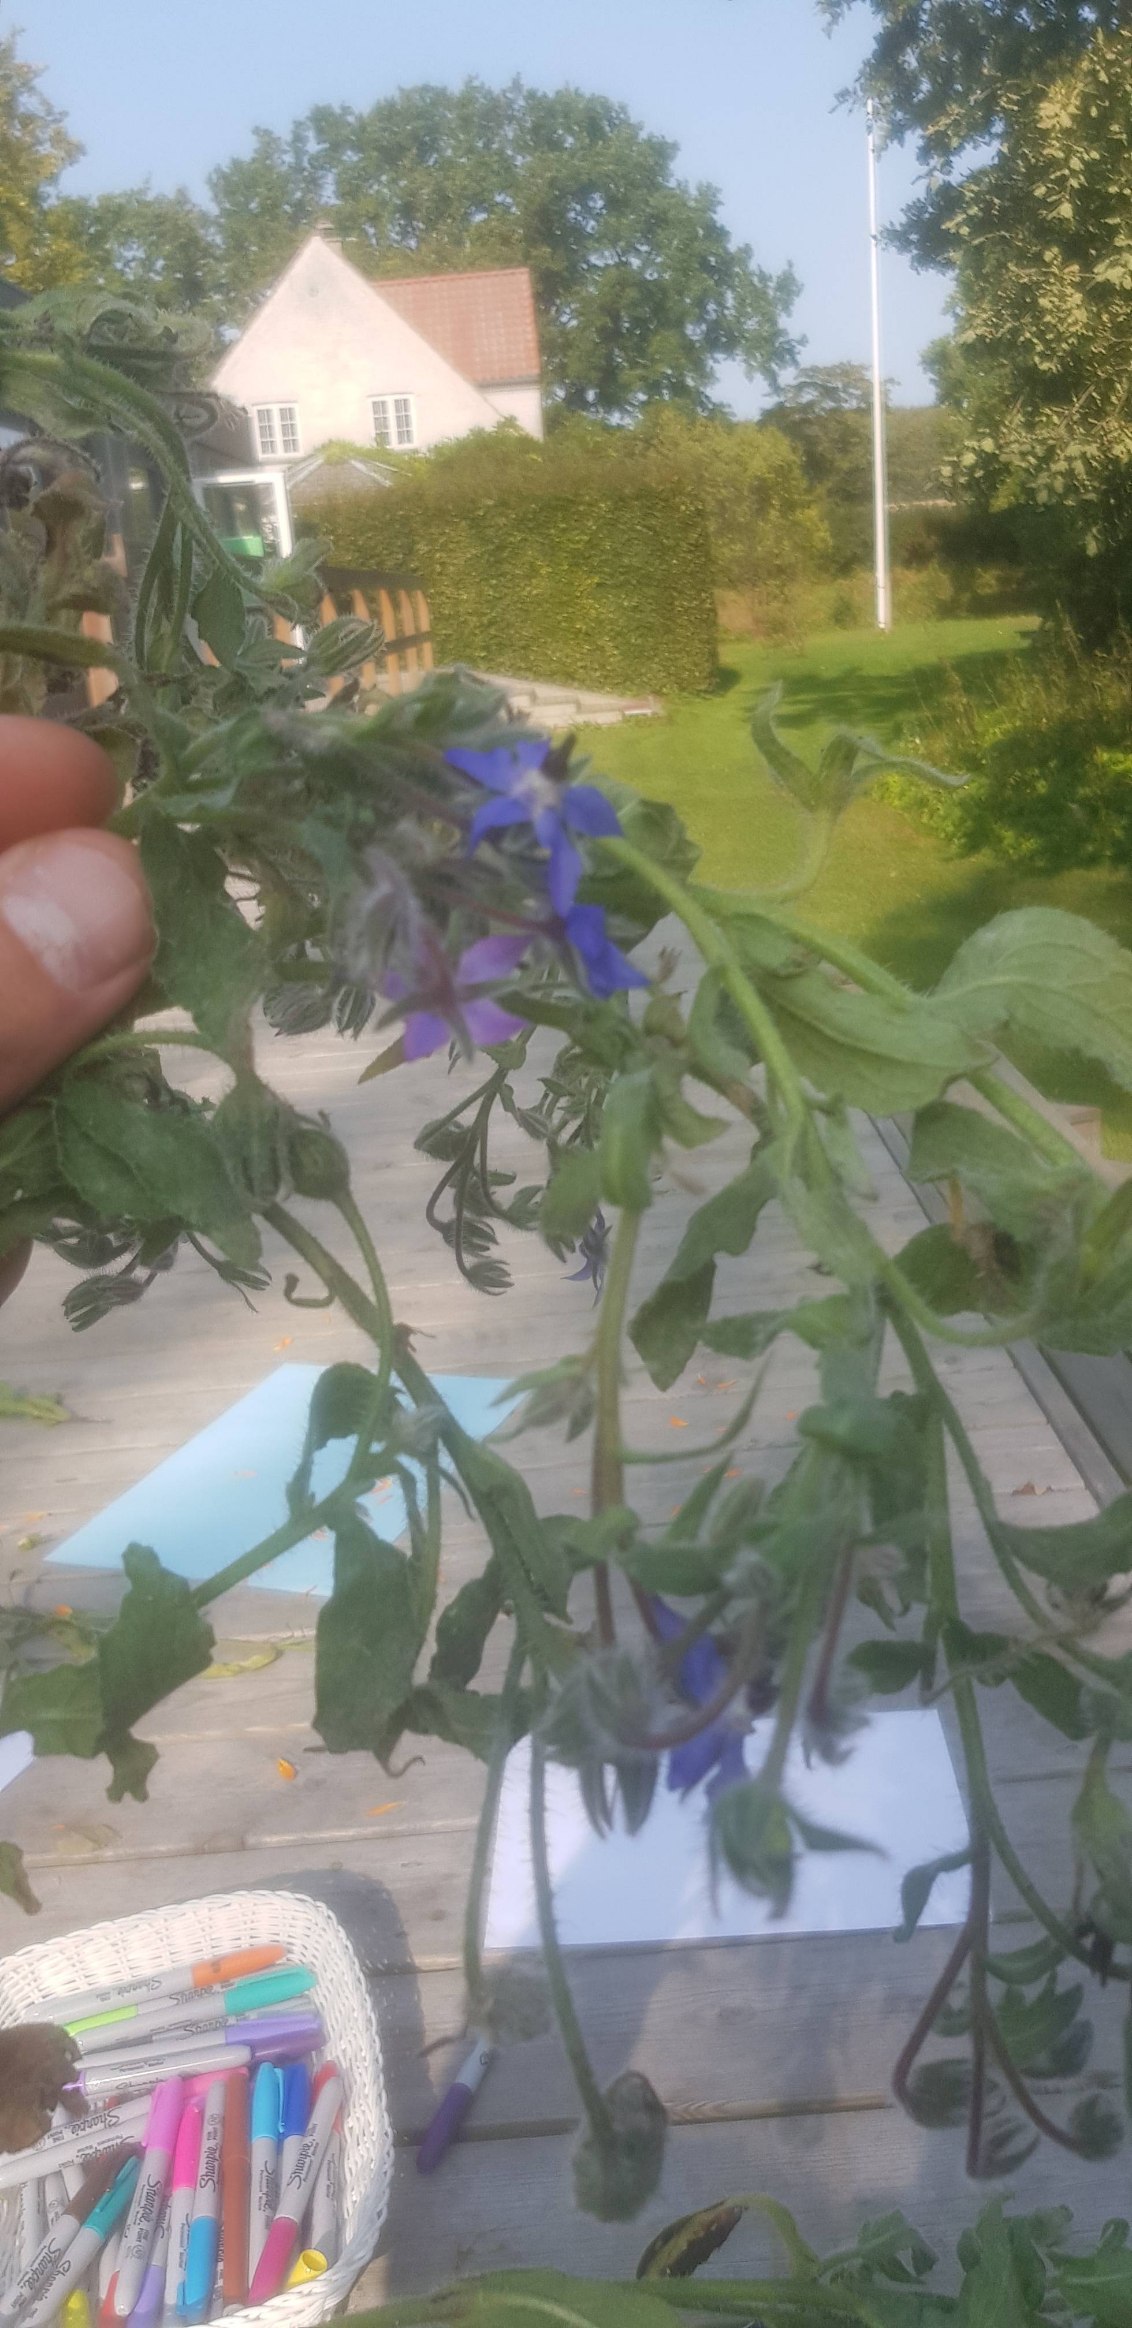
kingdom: Plantae
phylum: Tracheophyta
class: Magnoliopsida
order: Boraginales
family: Boraginaceae
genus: Borago
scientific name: Borago officinalis
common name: Hjulkrone
